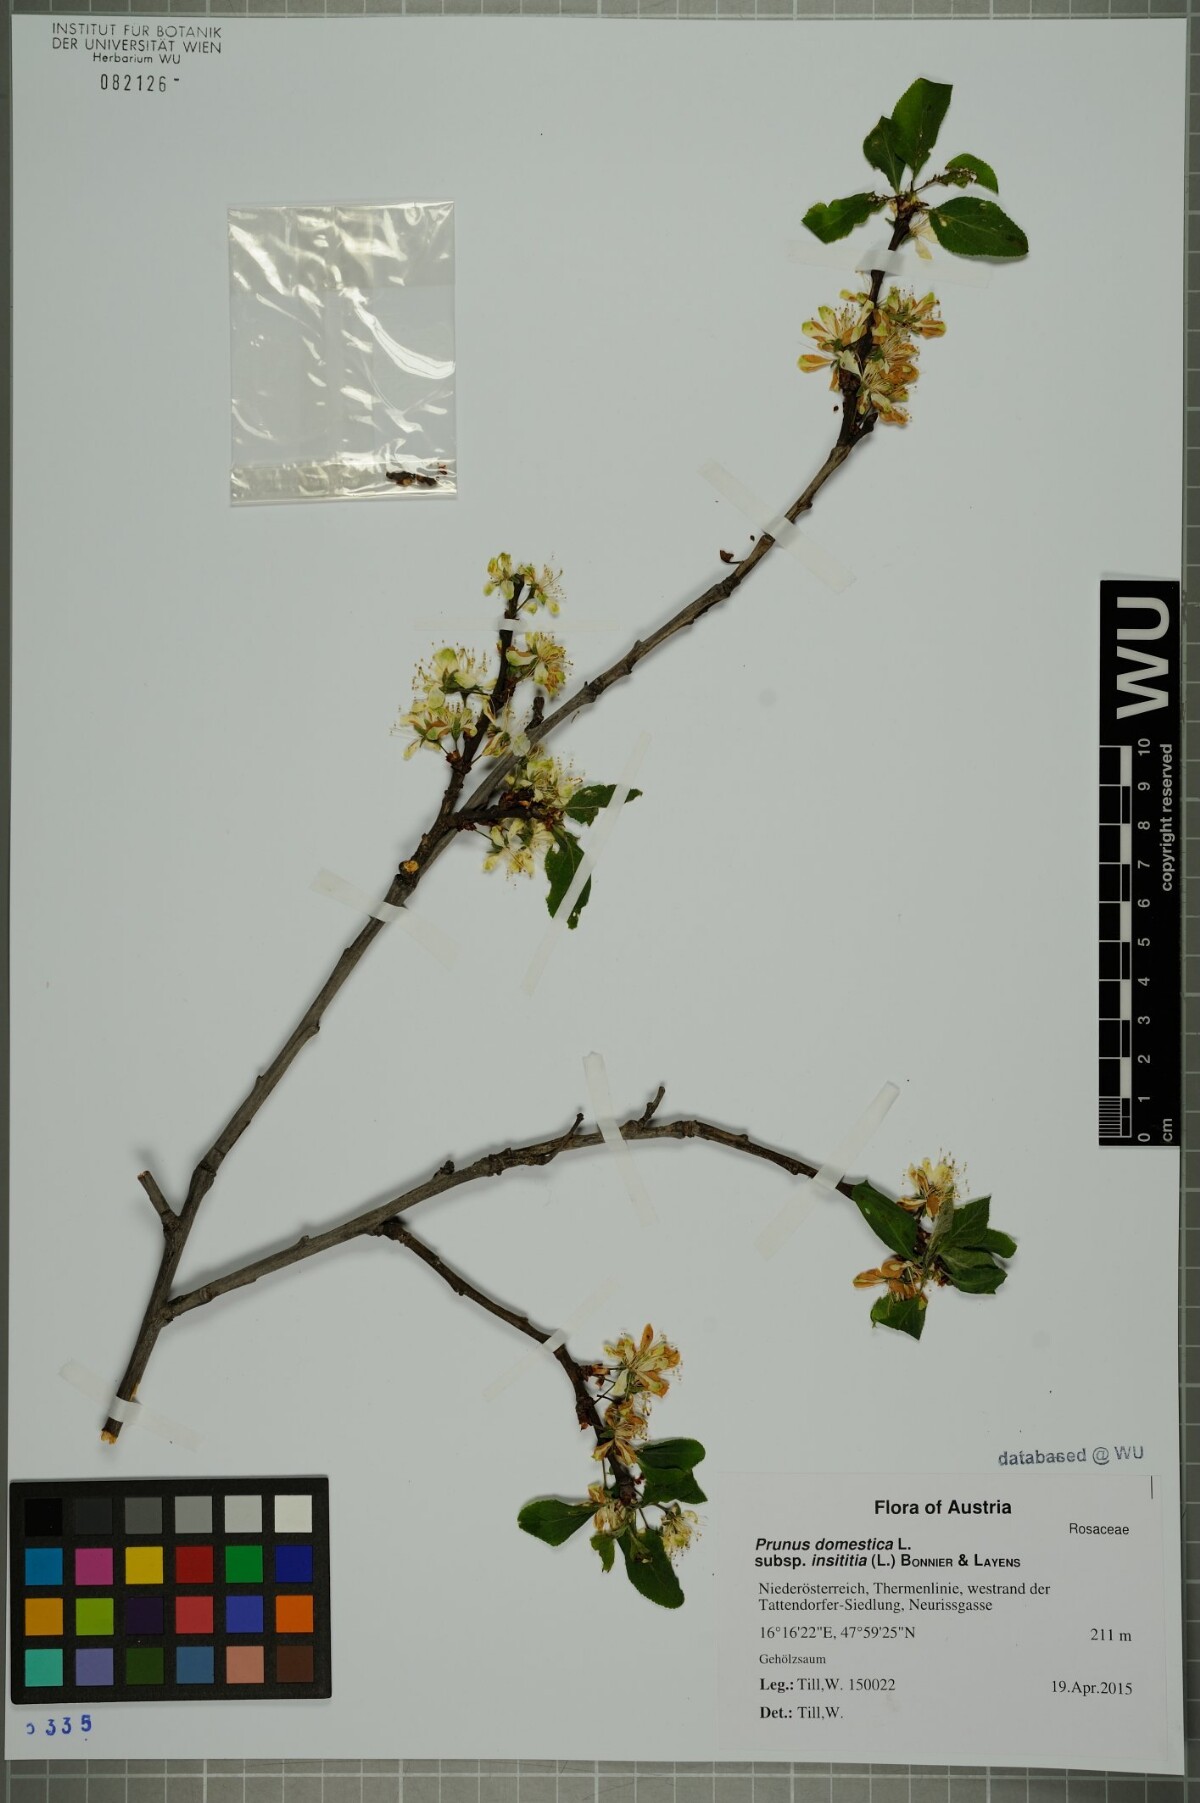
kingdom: Plantae
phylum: Tracheophyta
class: Magnoliopsida
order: Rosales
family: Rosaceae
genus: Prunus
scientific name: Prunus domestica
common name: Wild plum
